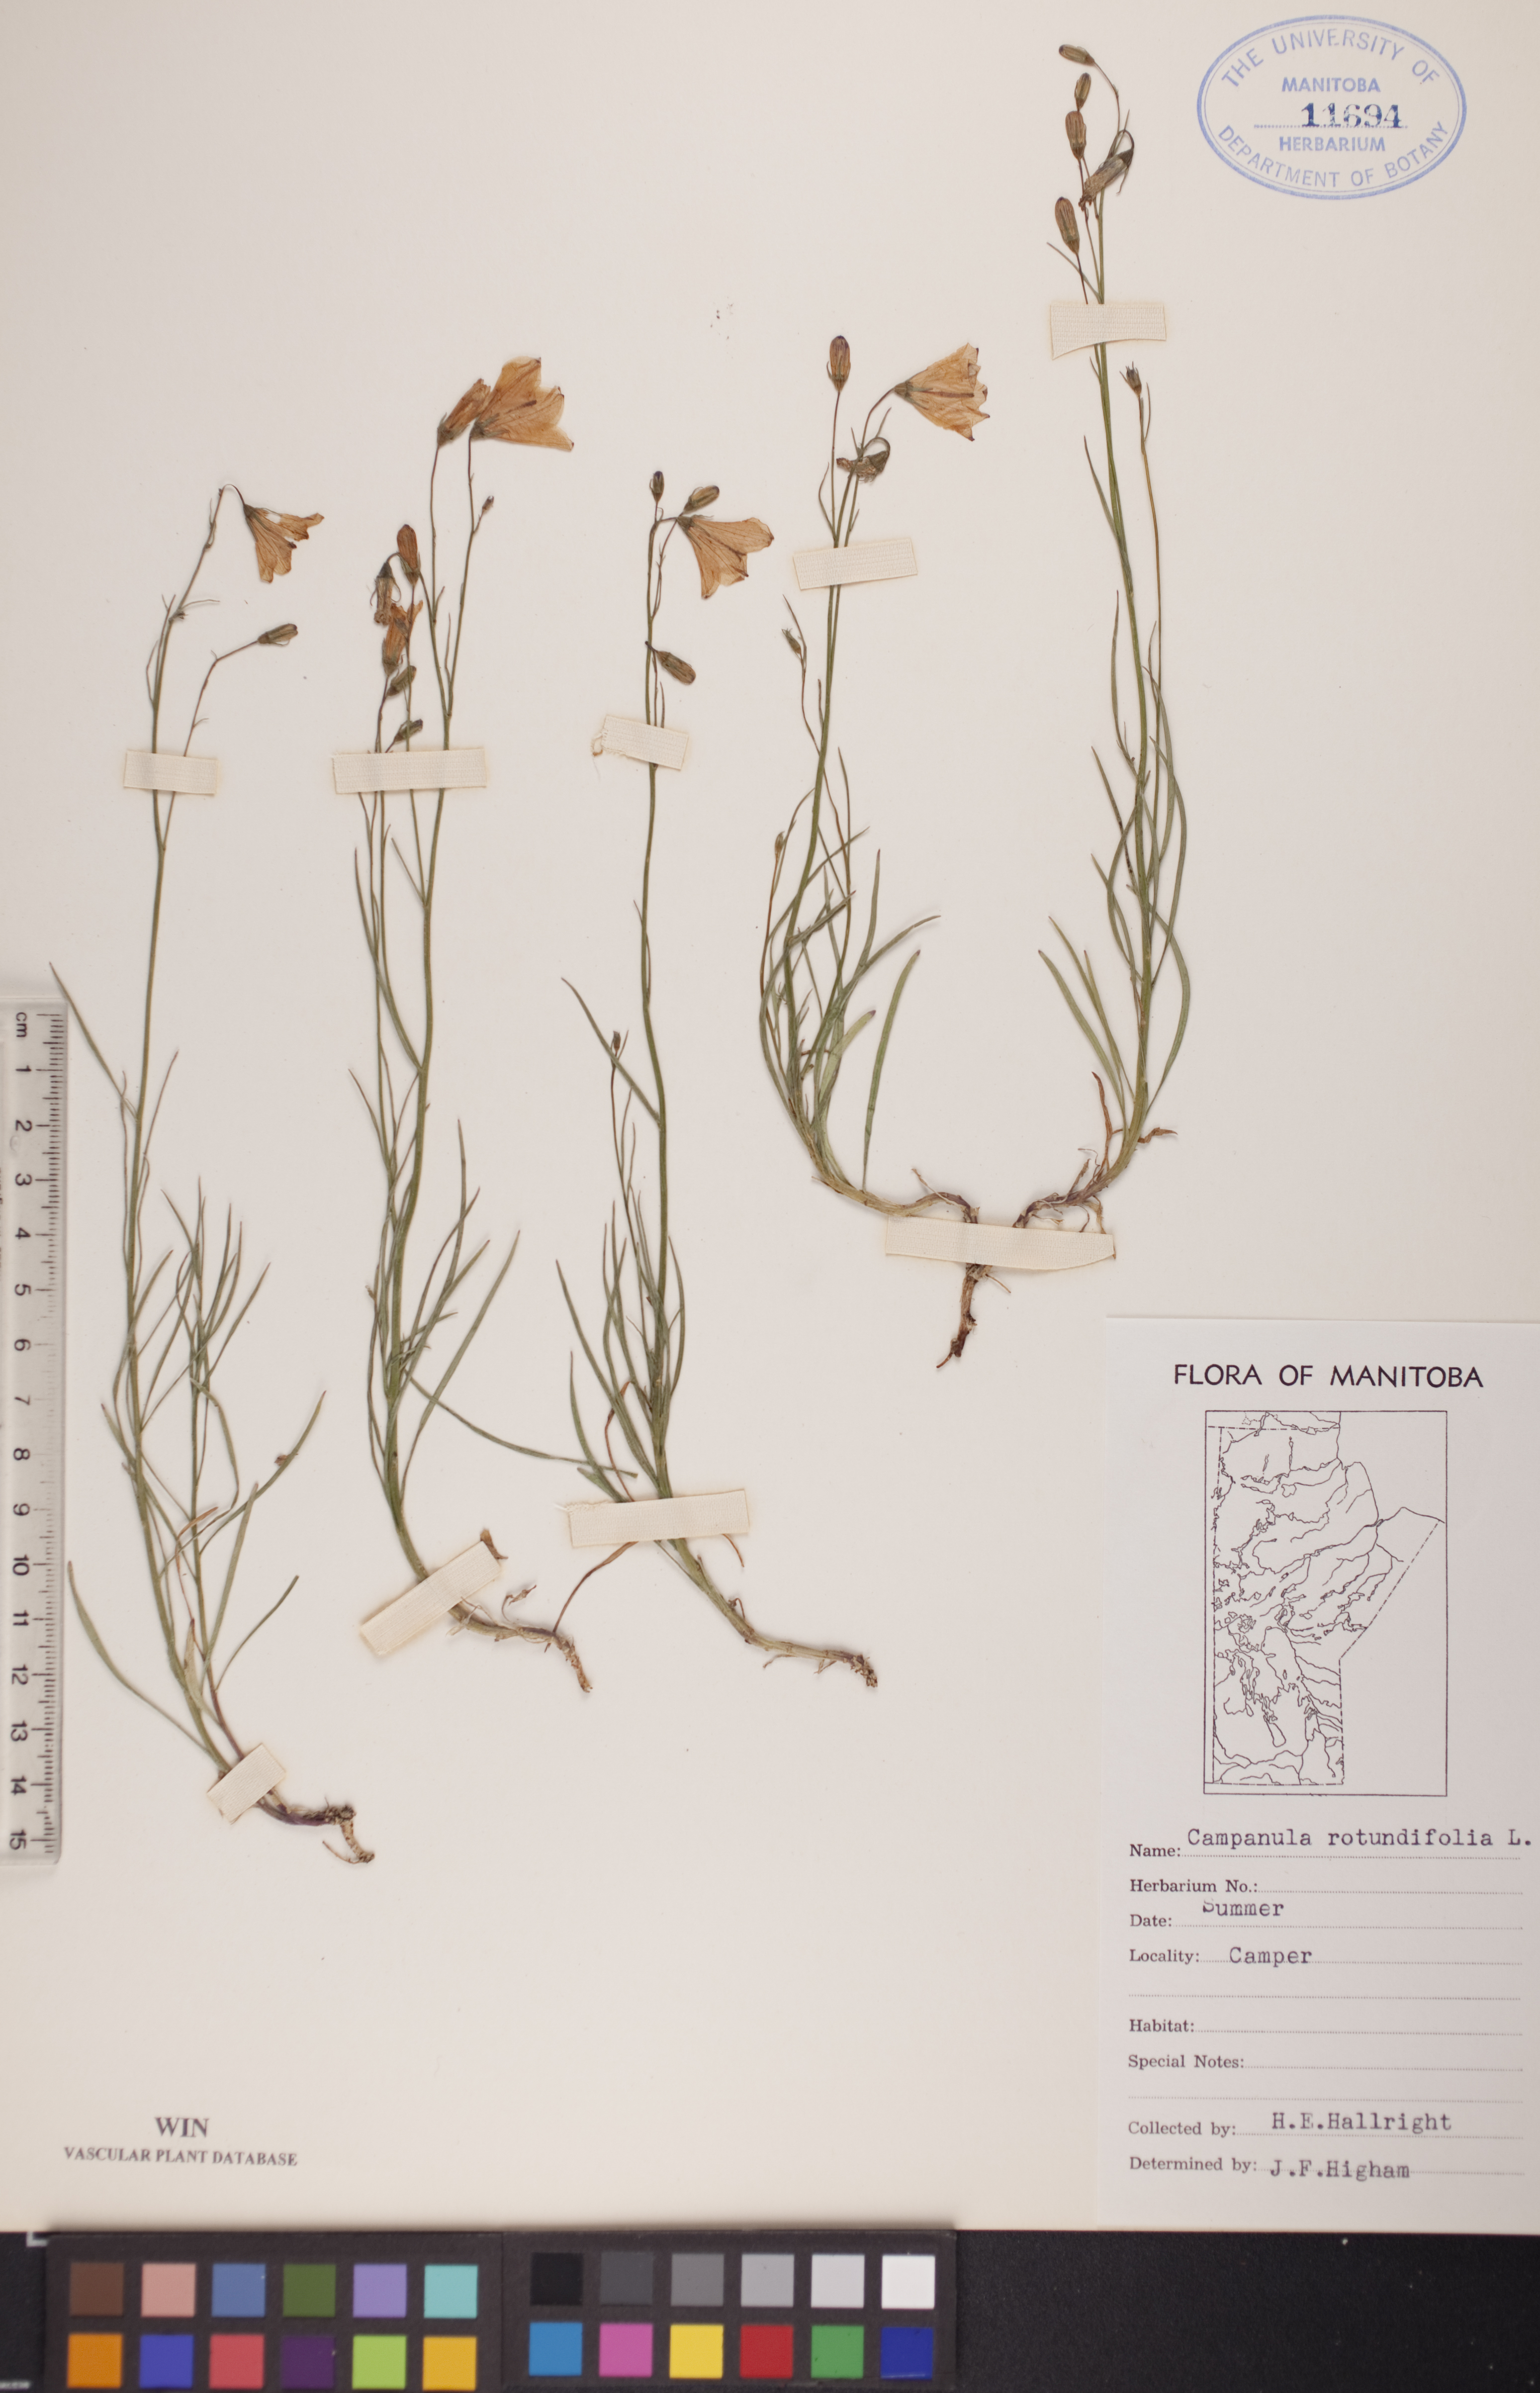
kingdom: Plantae
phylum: Tracheophyta
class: Magnoliopsida
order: Asterales
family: Campanulaceae
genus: Campanula
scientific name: Campanula rotundifolia
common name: Harebell
